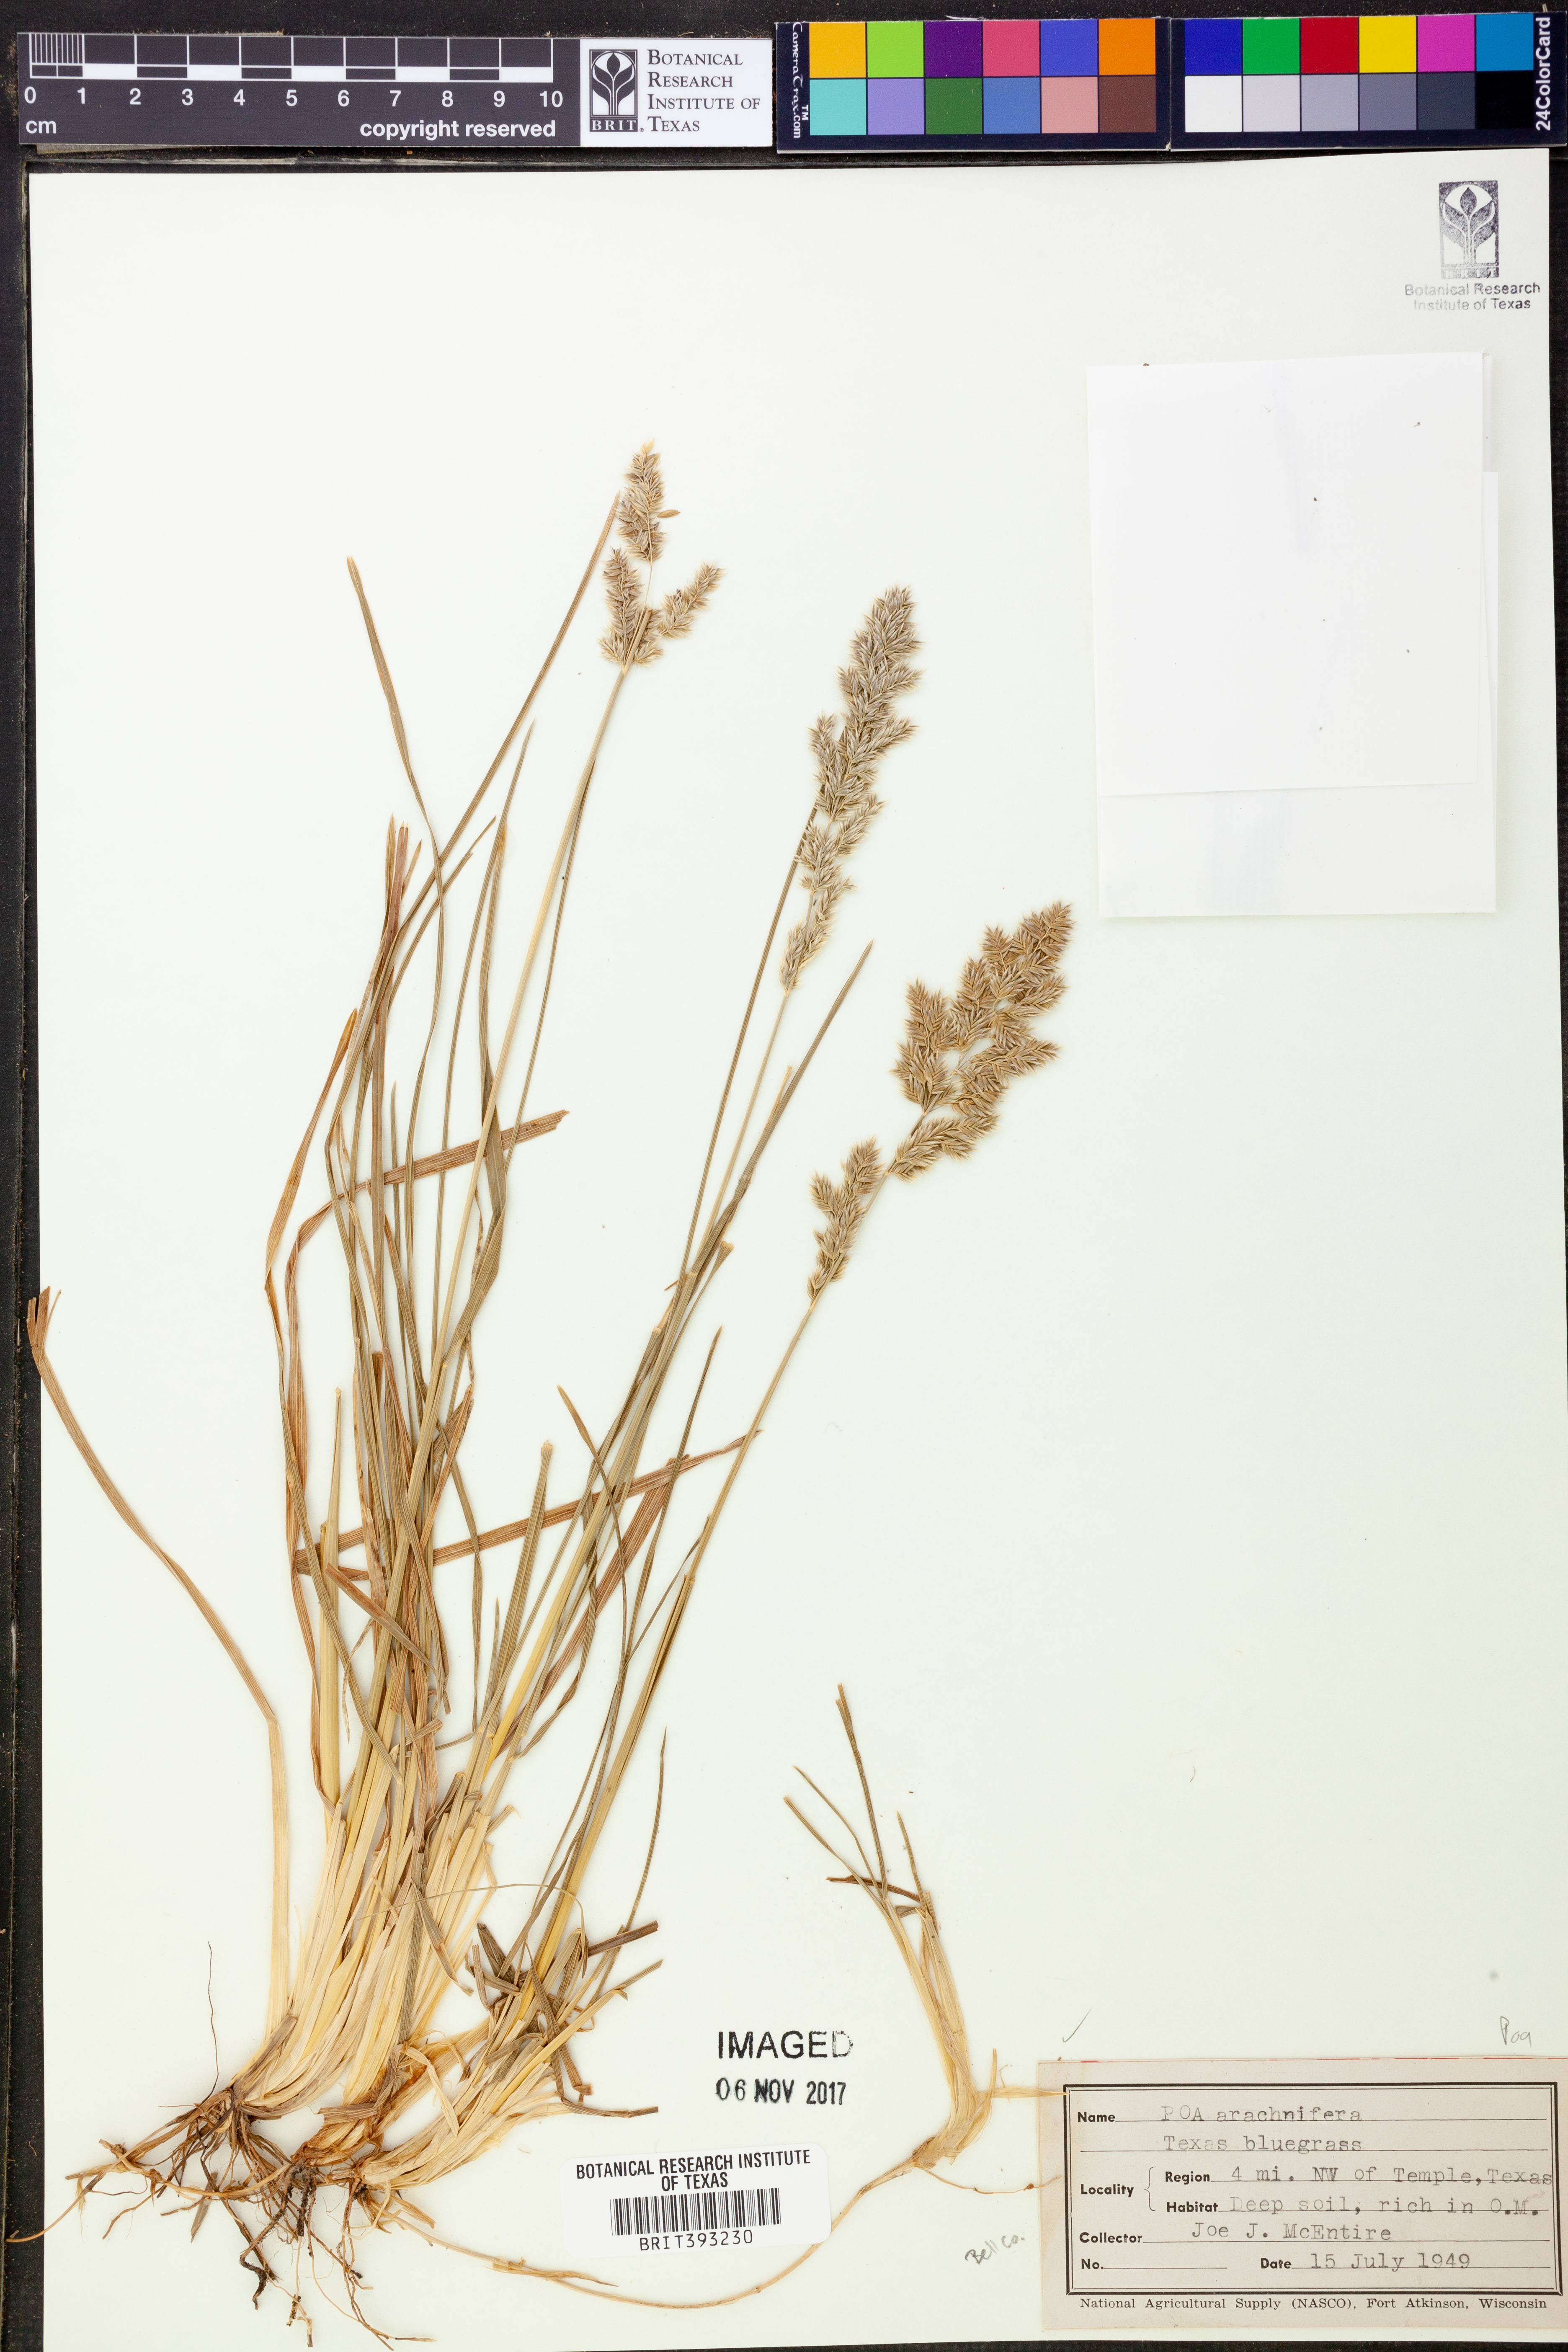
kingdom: Plantae
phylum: Tracheophyta
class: Liliopsida
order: Poales
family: Poaceae
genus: Poa
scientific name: Poa arachnifera
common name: Texas bluegrass
